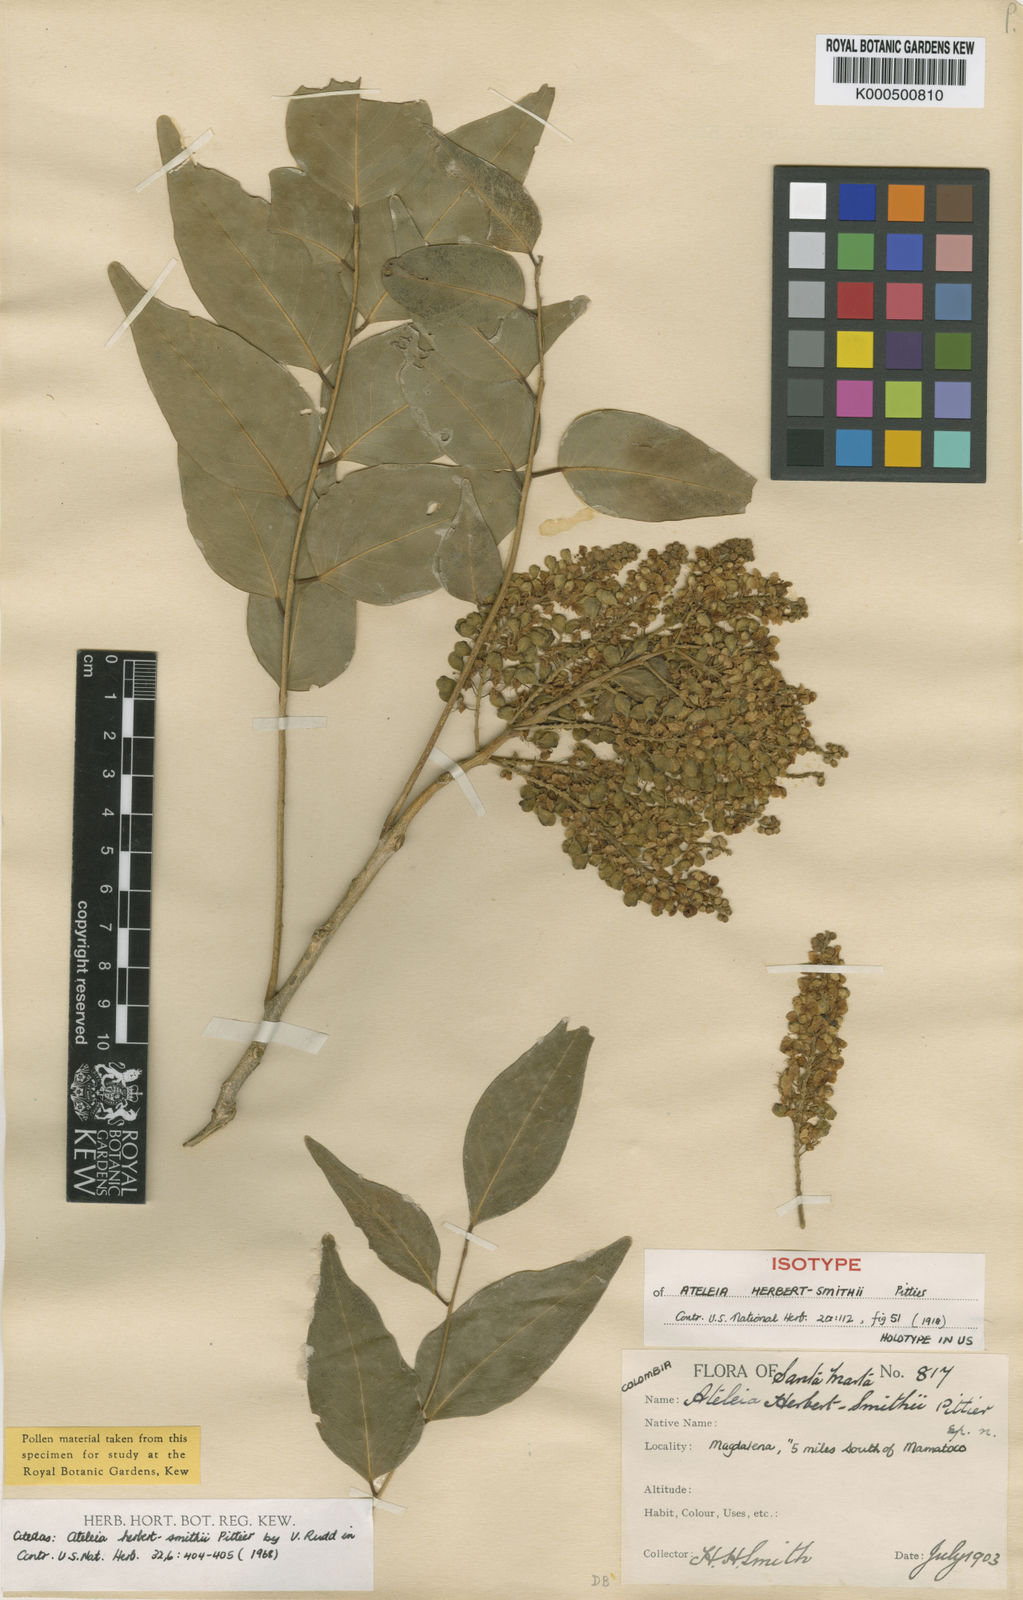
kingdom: Plantae
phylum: Tracheophyta
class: Magnoliopsida
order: Fabales
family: Fabaceae
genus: Ateleia
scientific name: Ateleia herbert-smithii
